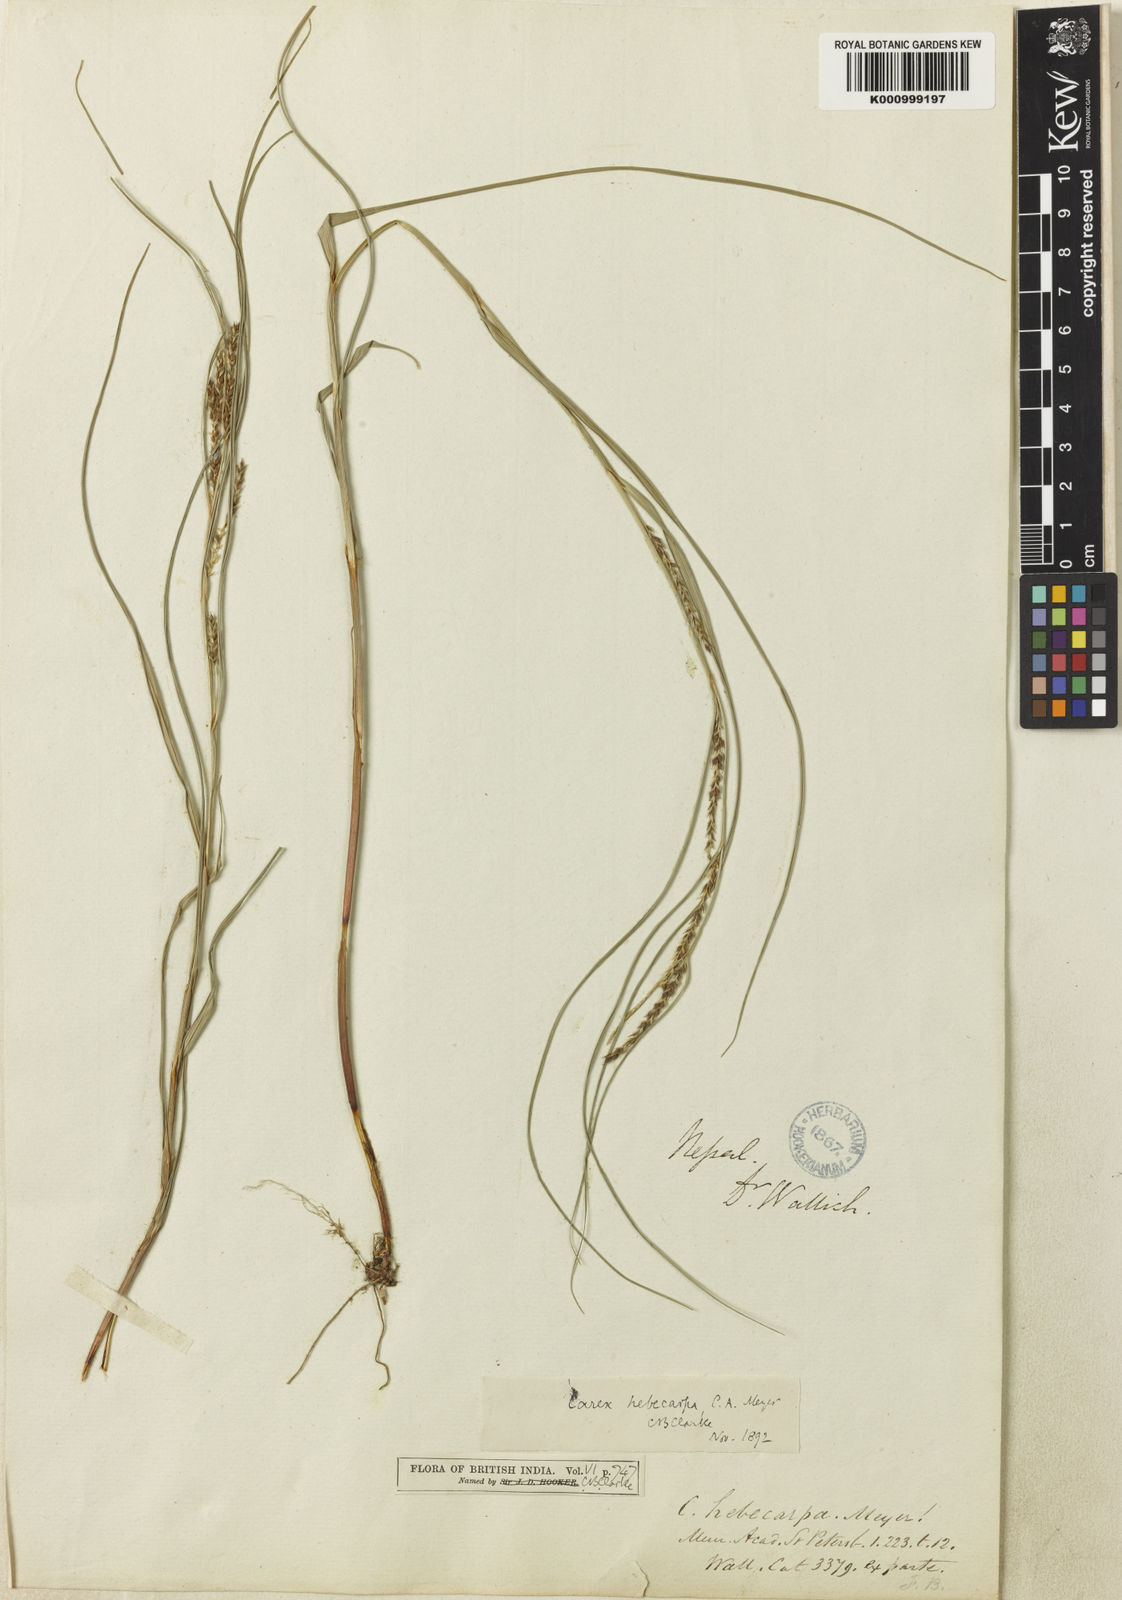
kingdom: Plantae
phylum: Tracheophyta
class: Liliopsida
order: Poales
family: Cyperaceae
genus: Carex
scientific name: Carex hebecarpa
